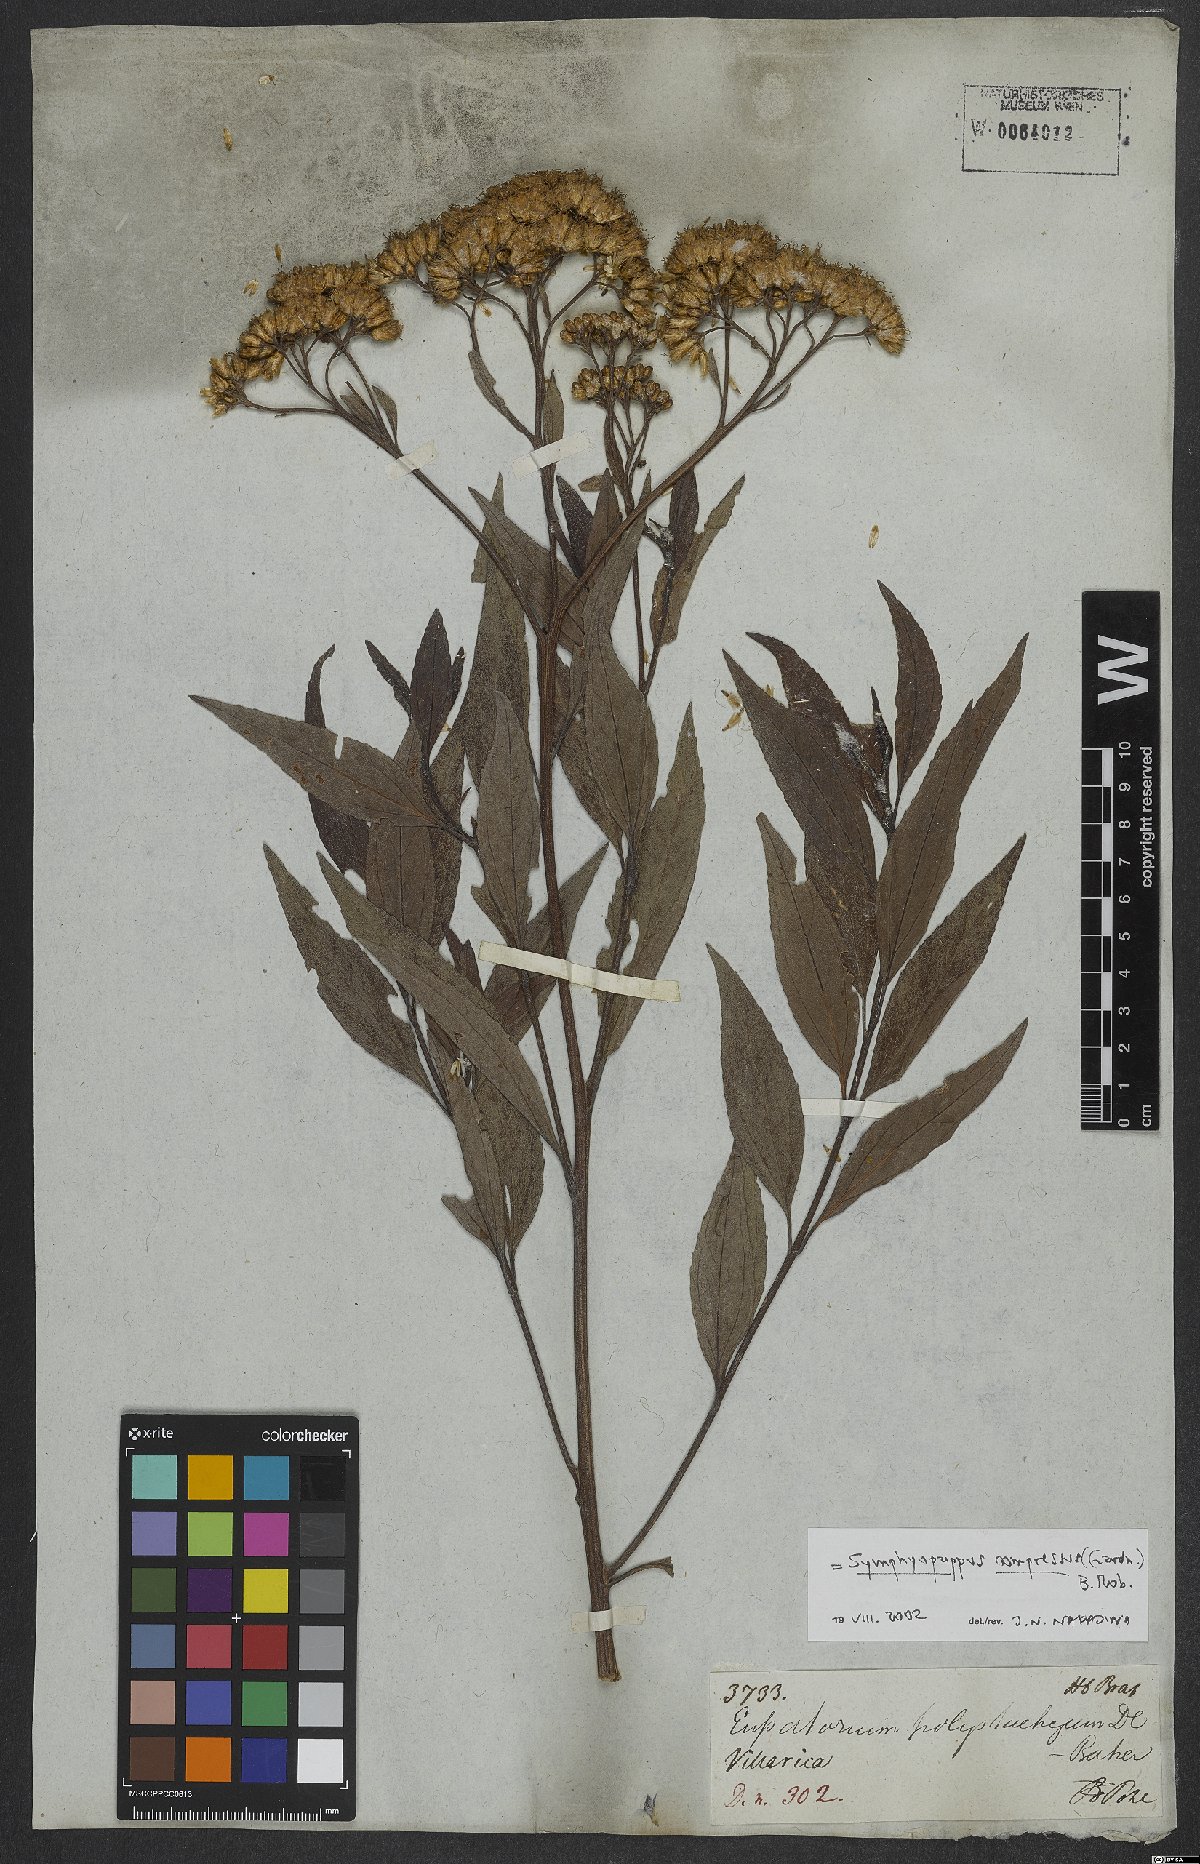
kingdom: Plantae
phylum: Tracheophyta
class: Magnoliopsida
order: Asterales
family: Asteraceae
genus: Symphyopappus
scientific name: Symphyopappus compressus
